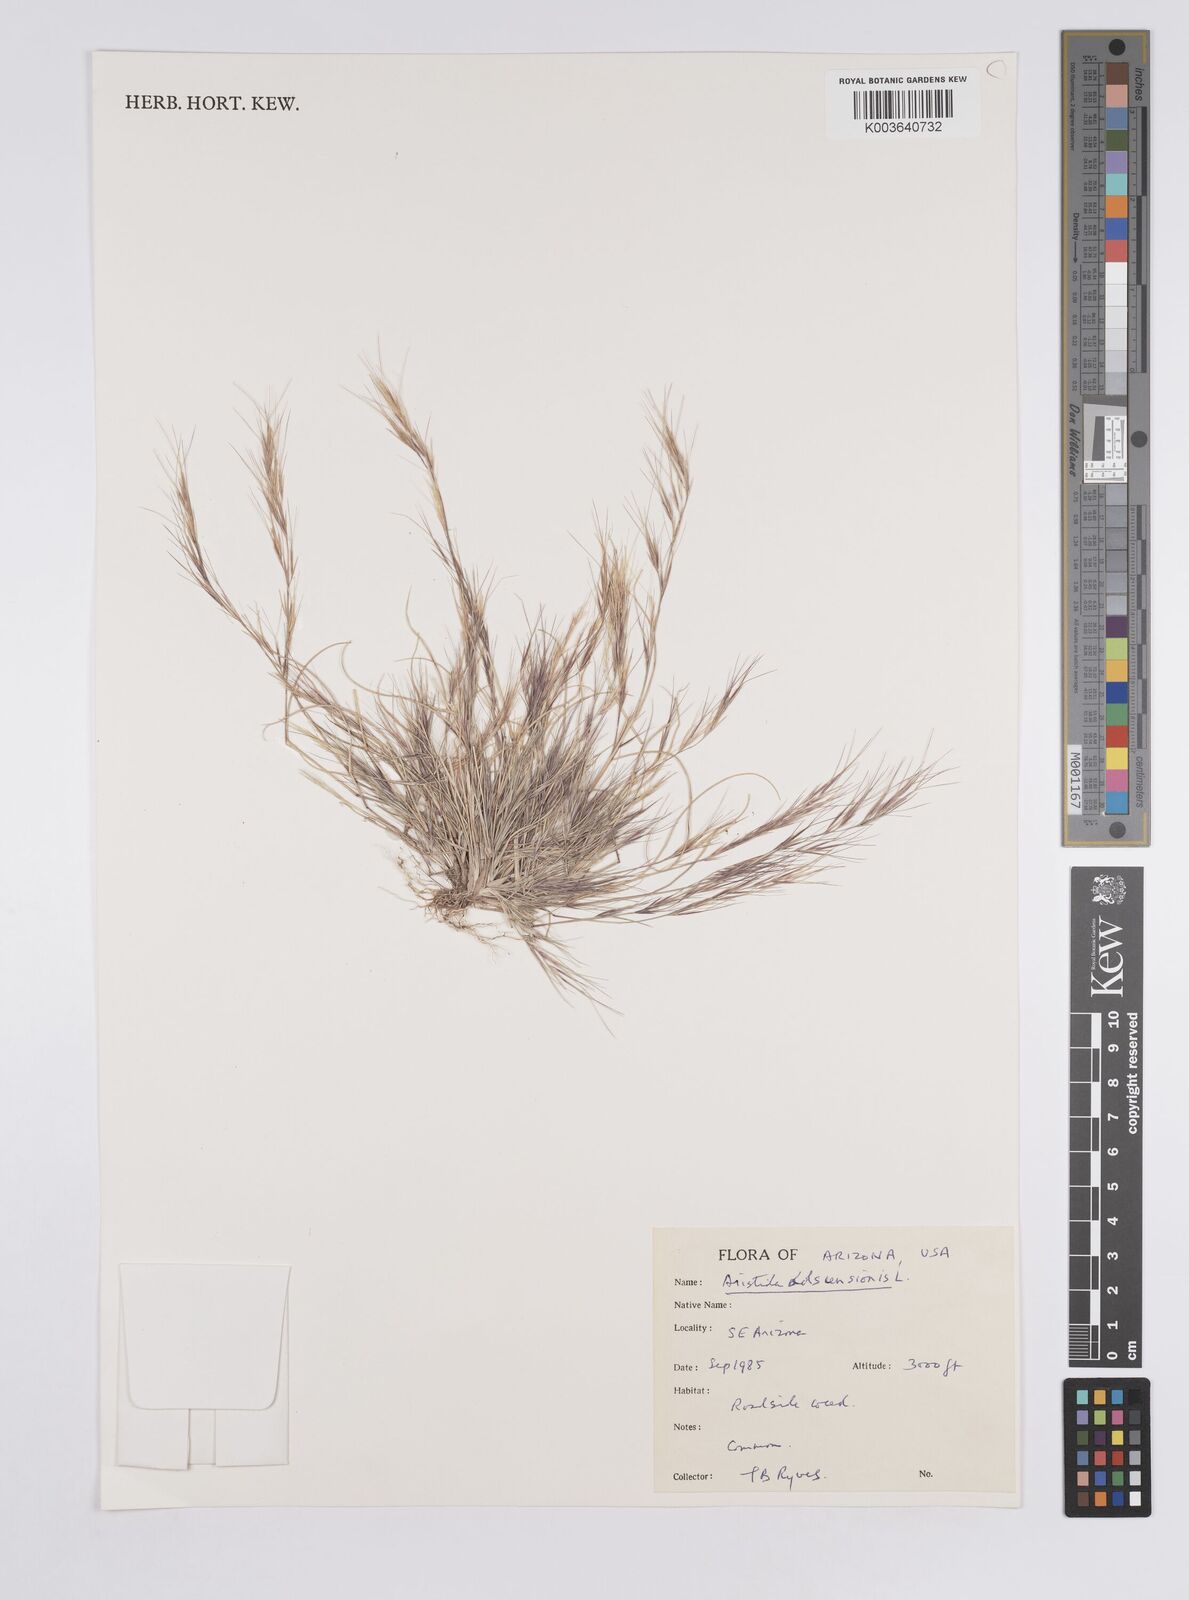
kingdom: Plantae
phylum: Tracheophyta
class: Liliopsida
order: Poales
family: Poaceae
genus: Aristida
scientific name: Aristida adscensionis
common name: Sixweeks threeawn
